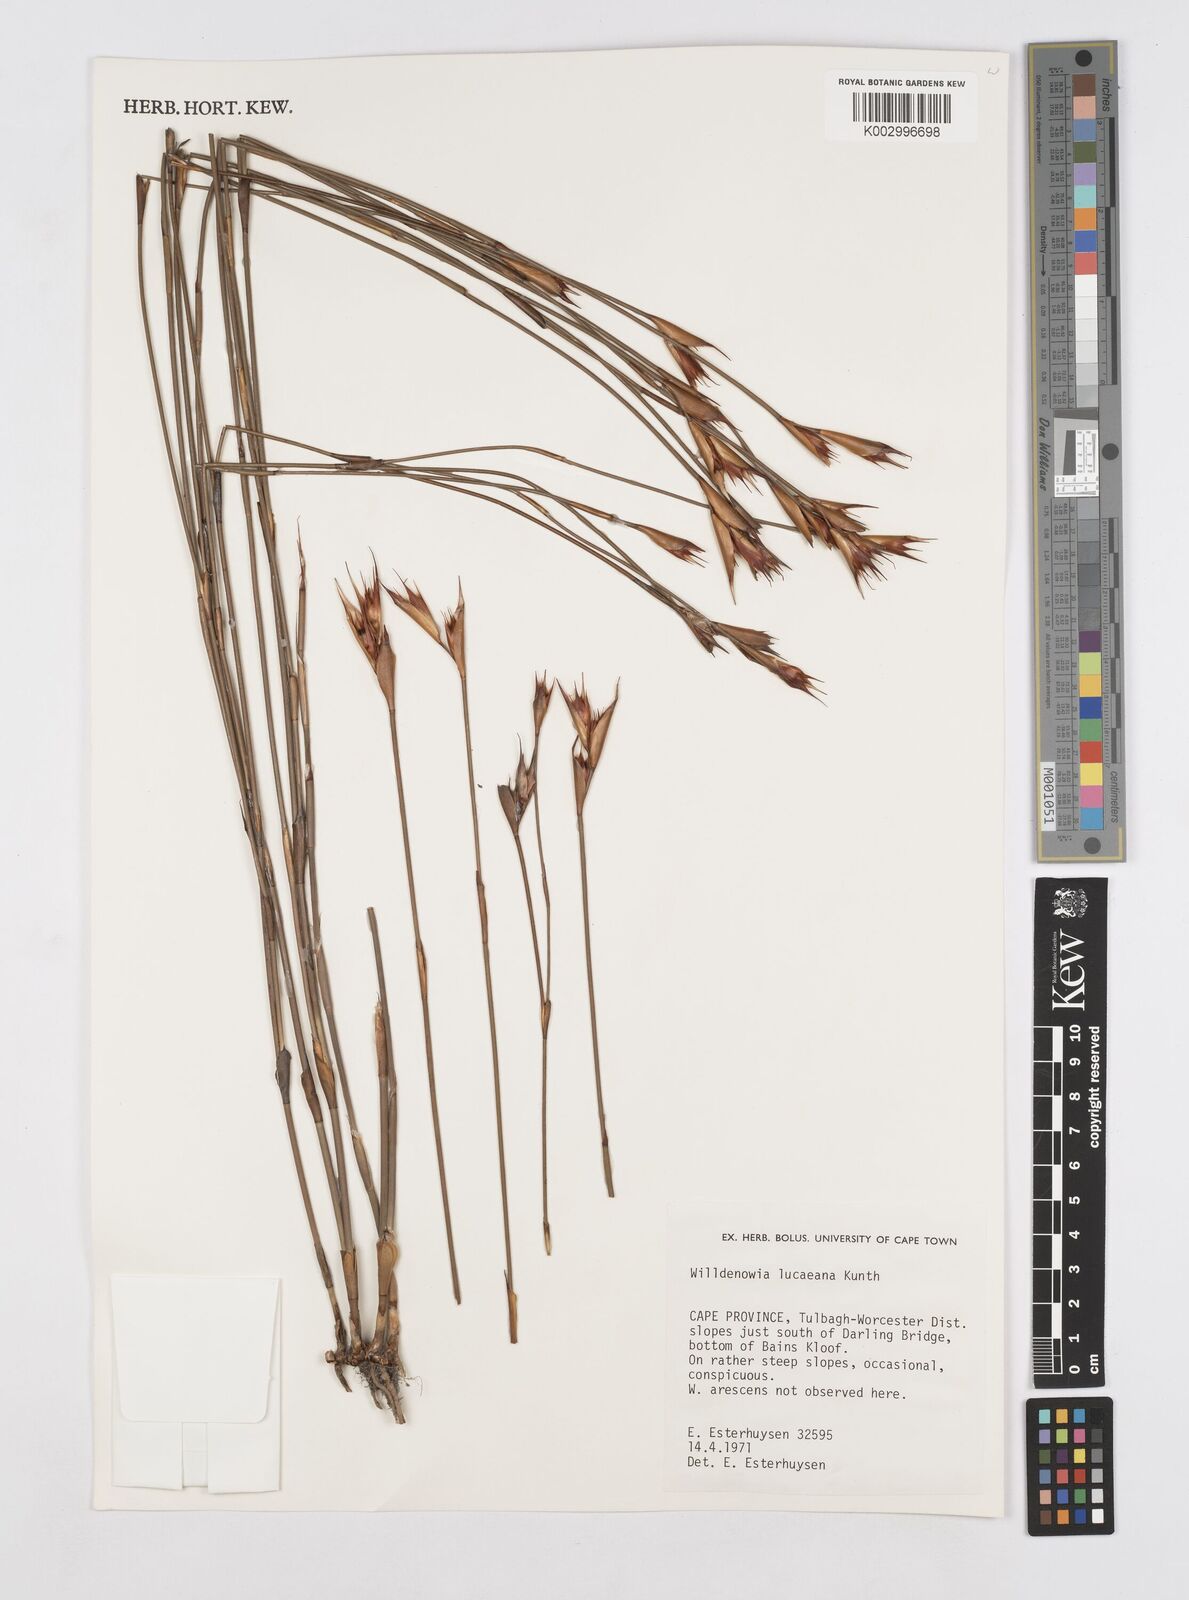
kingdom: Plantae
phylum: Tracheophyta
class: Liliopsida
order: Poales
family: Restionaceae
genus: Willdenowia
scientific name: Willdenowia glomerata
